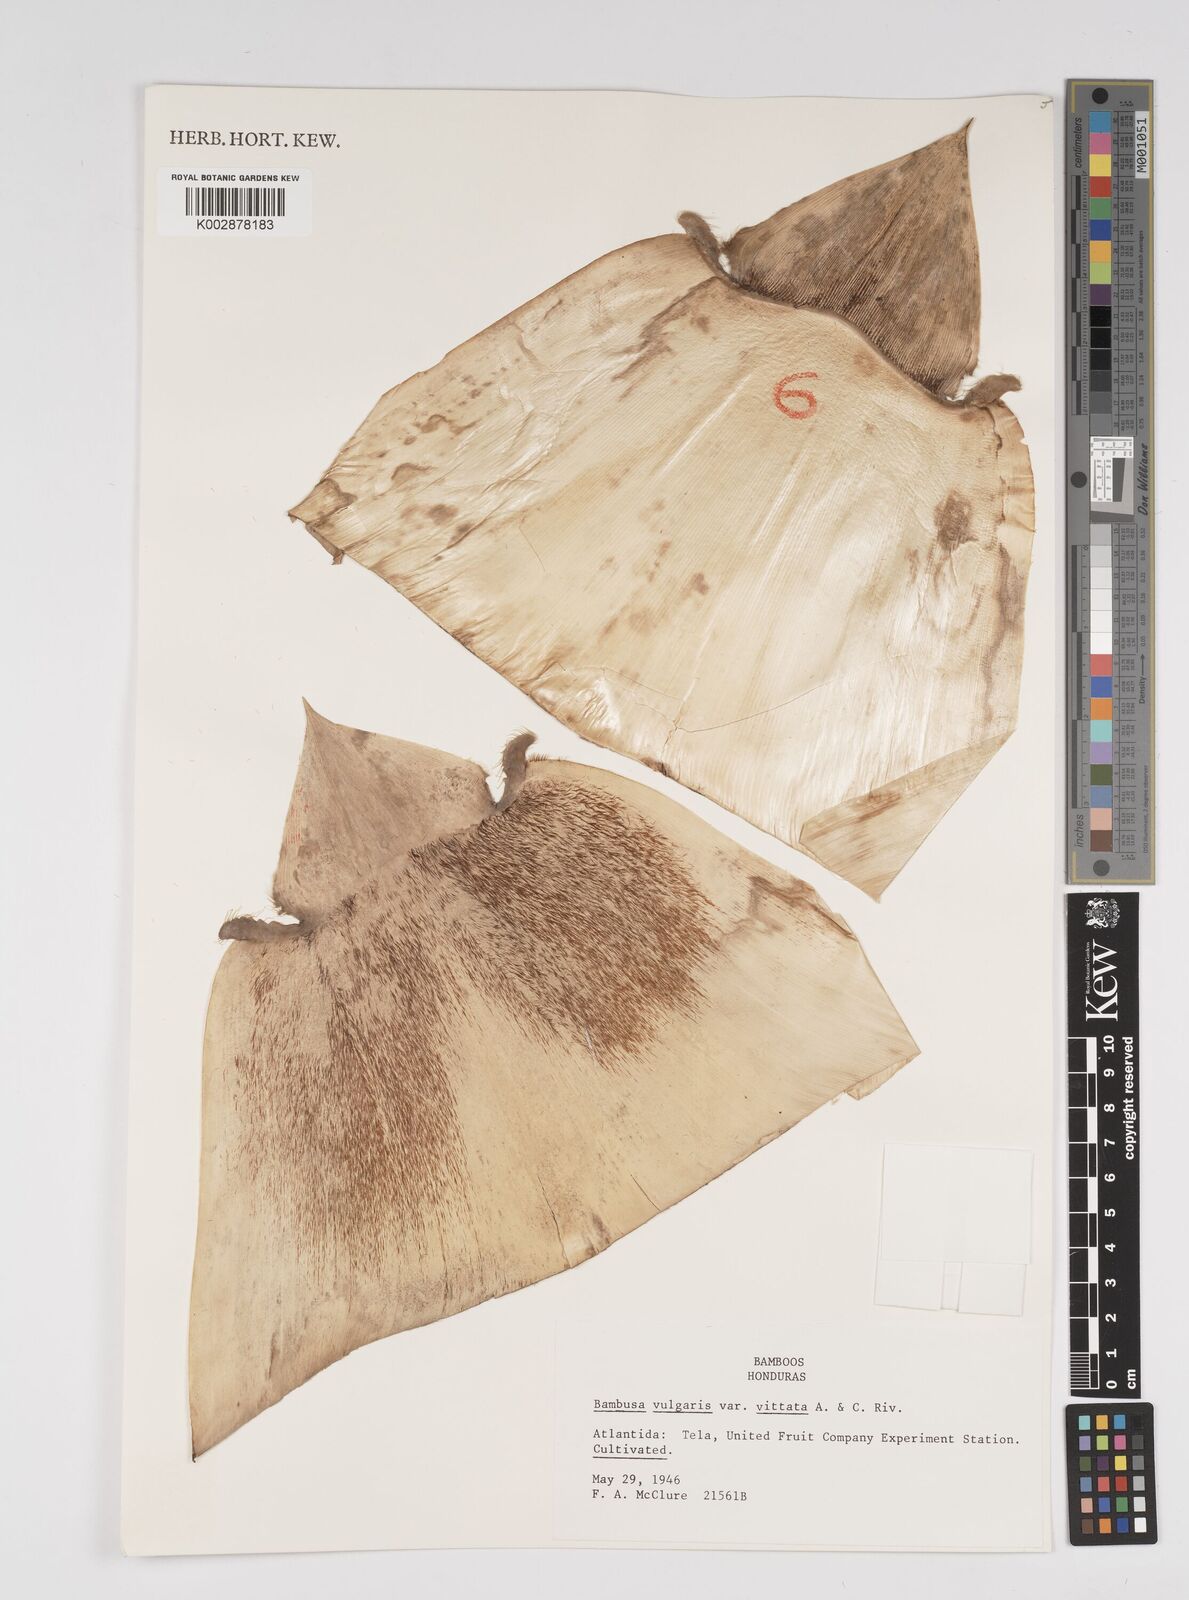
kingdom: Plantae
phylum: Tracheophyta
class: Liliopsida
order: Poales
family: Poaceae
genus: Guadua
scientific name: Guadua amplexifolia
